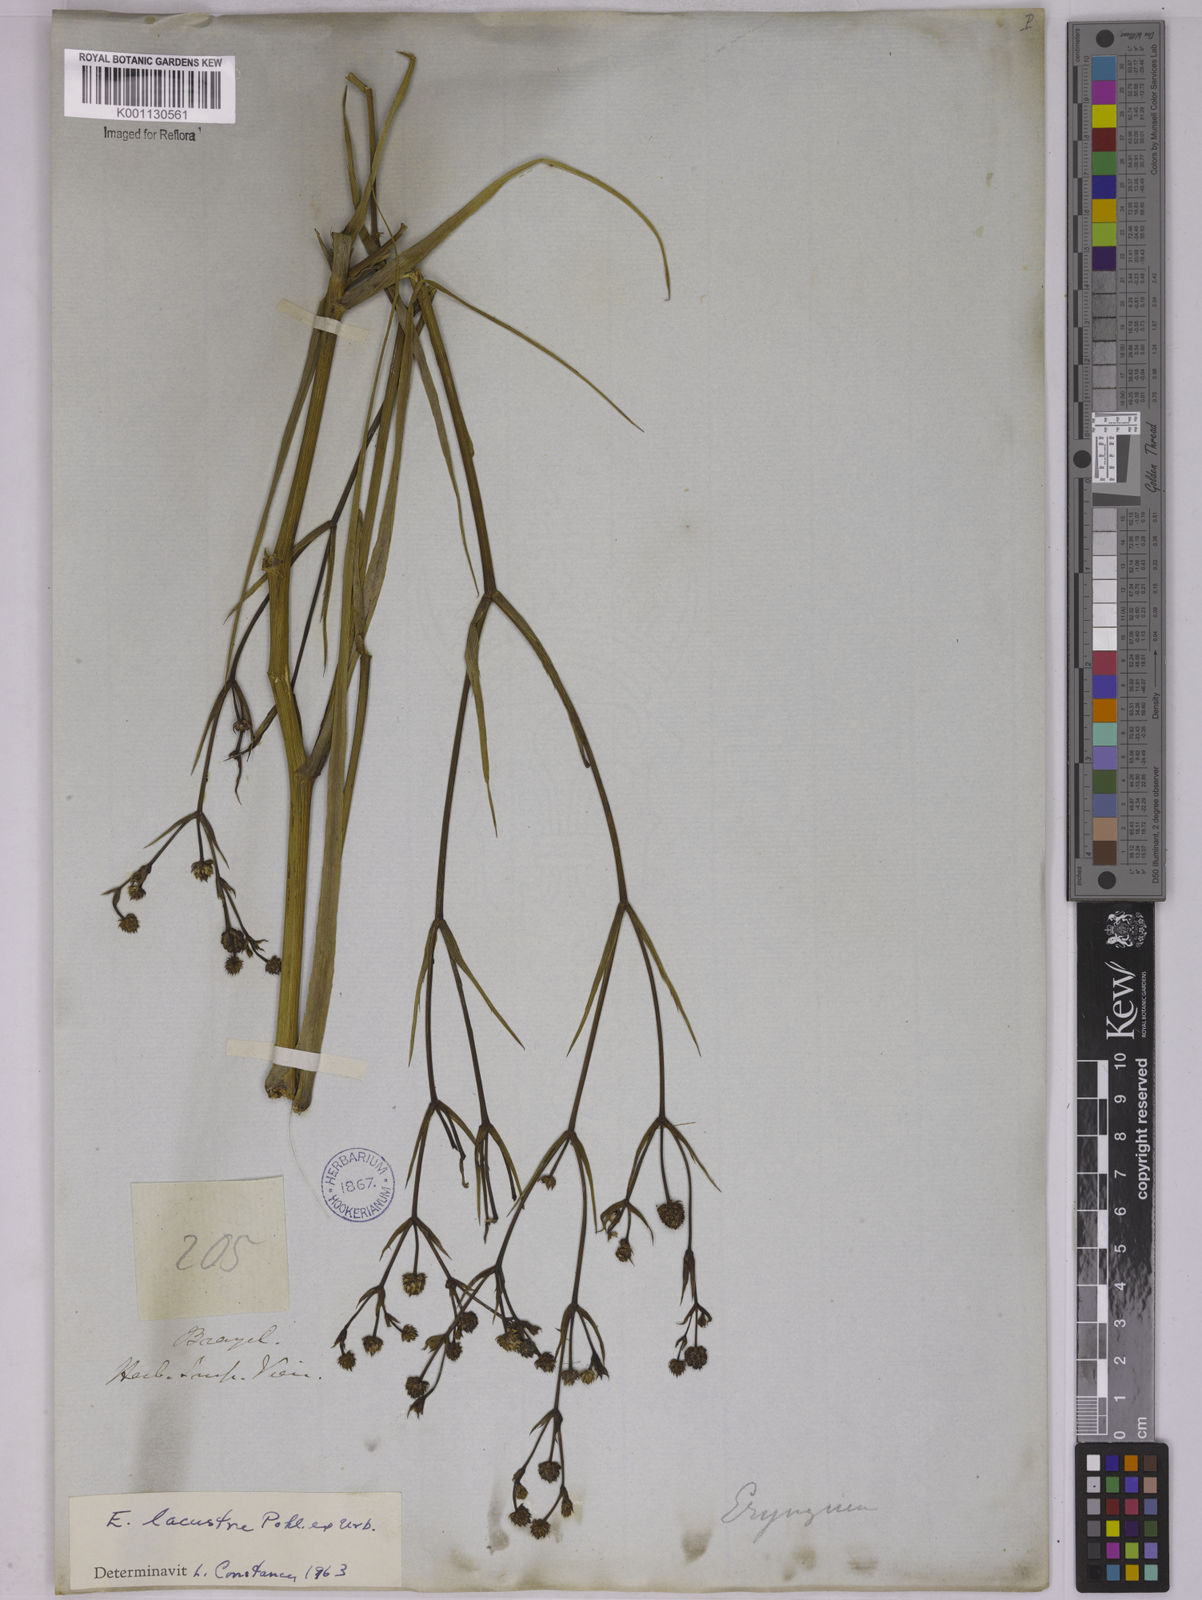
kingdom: Plantae
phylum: Tracheophyta
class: Magnoliopsida
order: Apiales
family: Apiaceae
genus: Eryngium
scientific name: Eryngium lacustre
